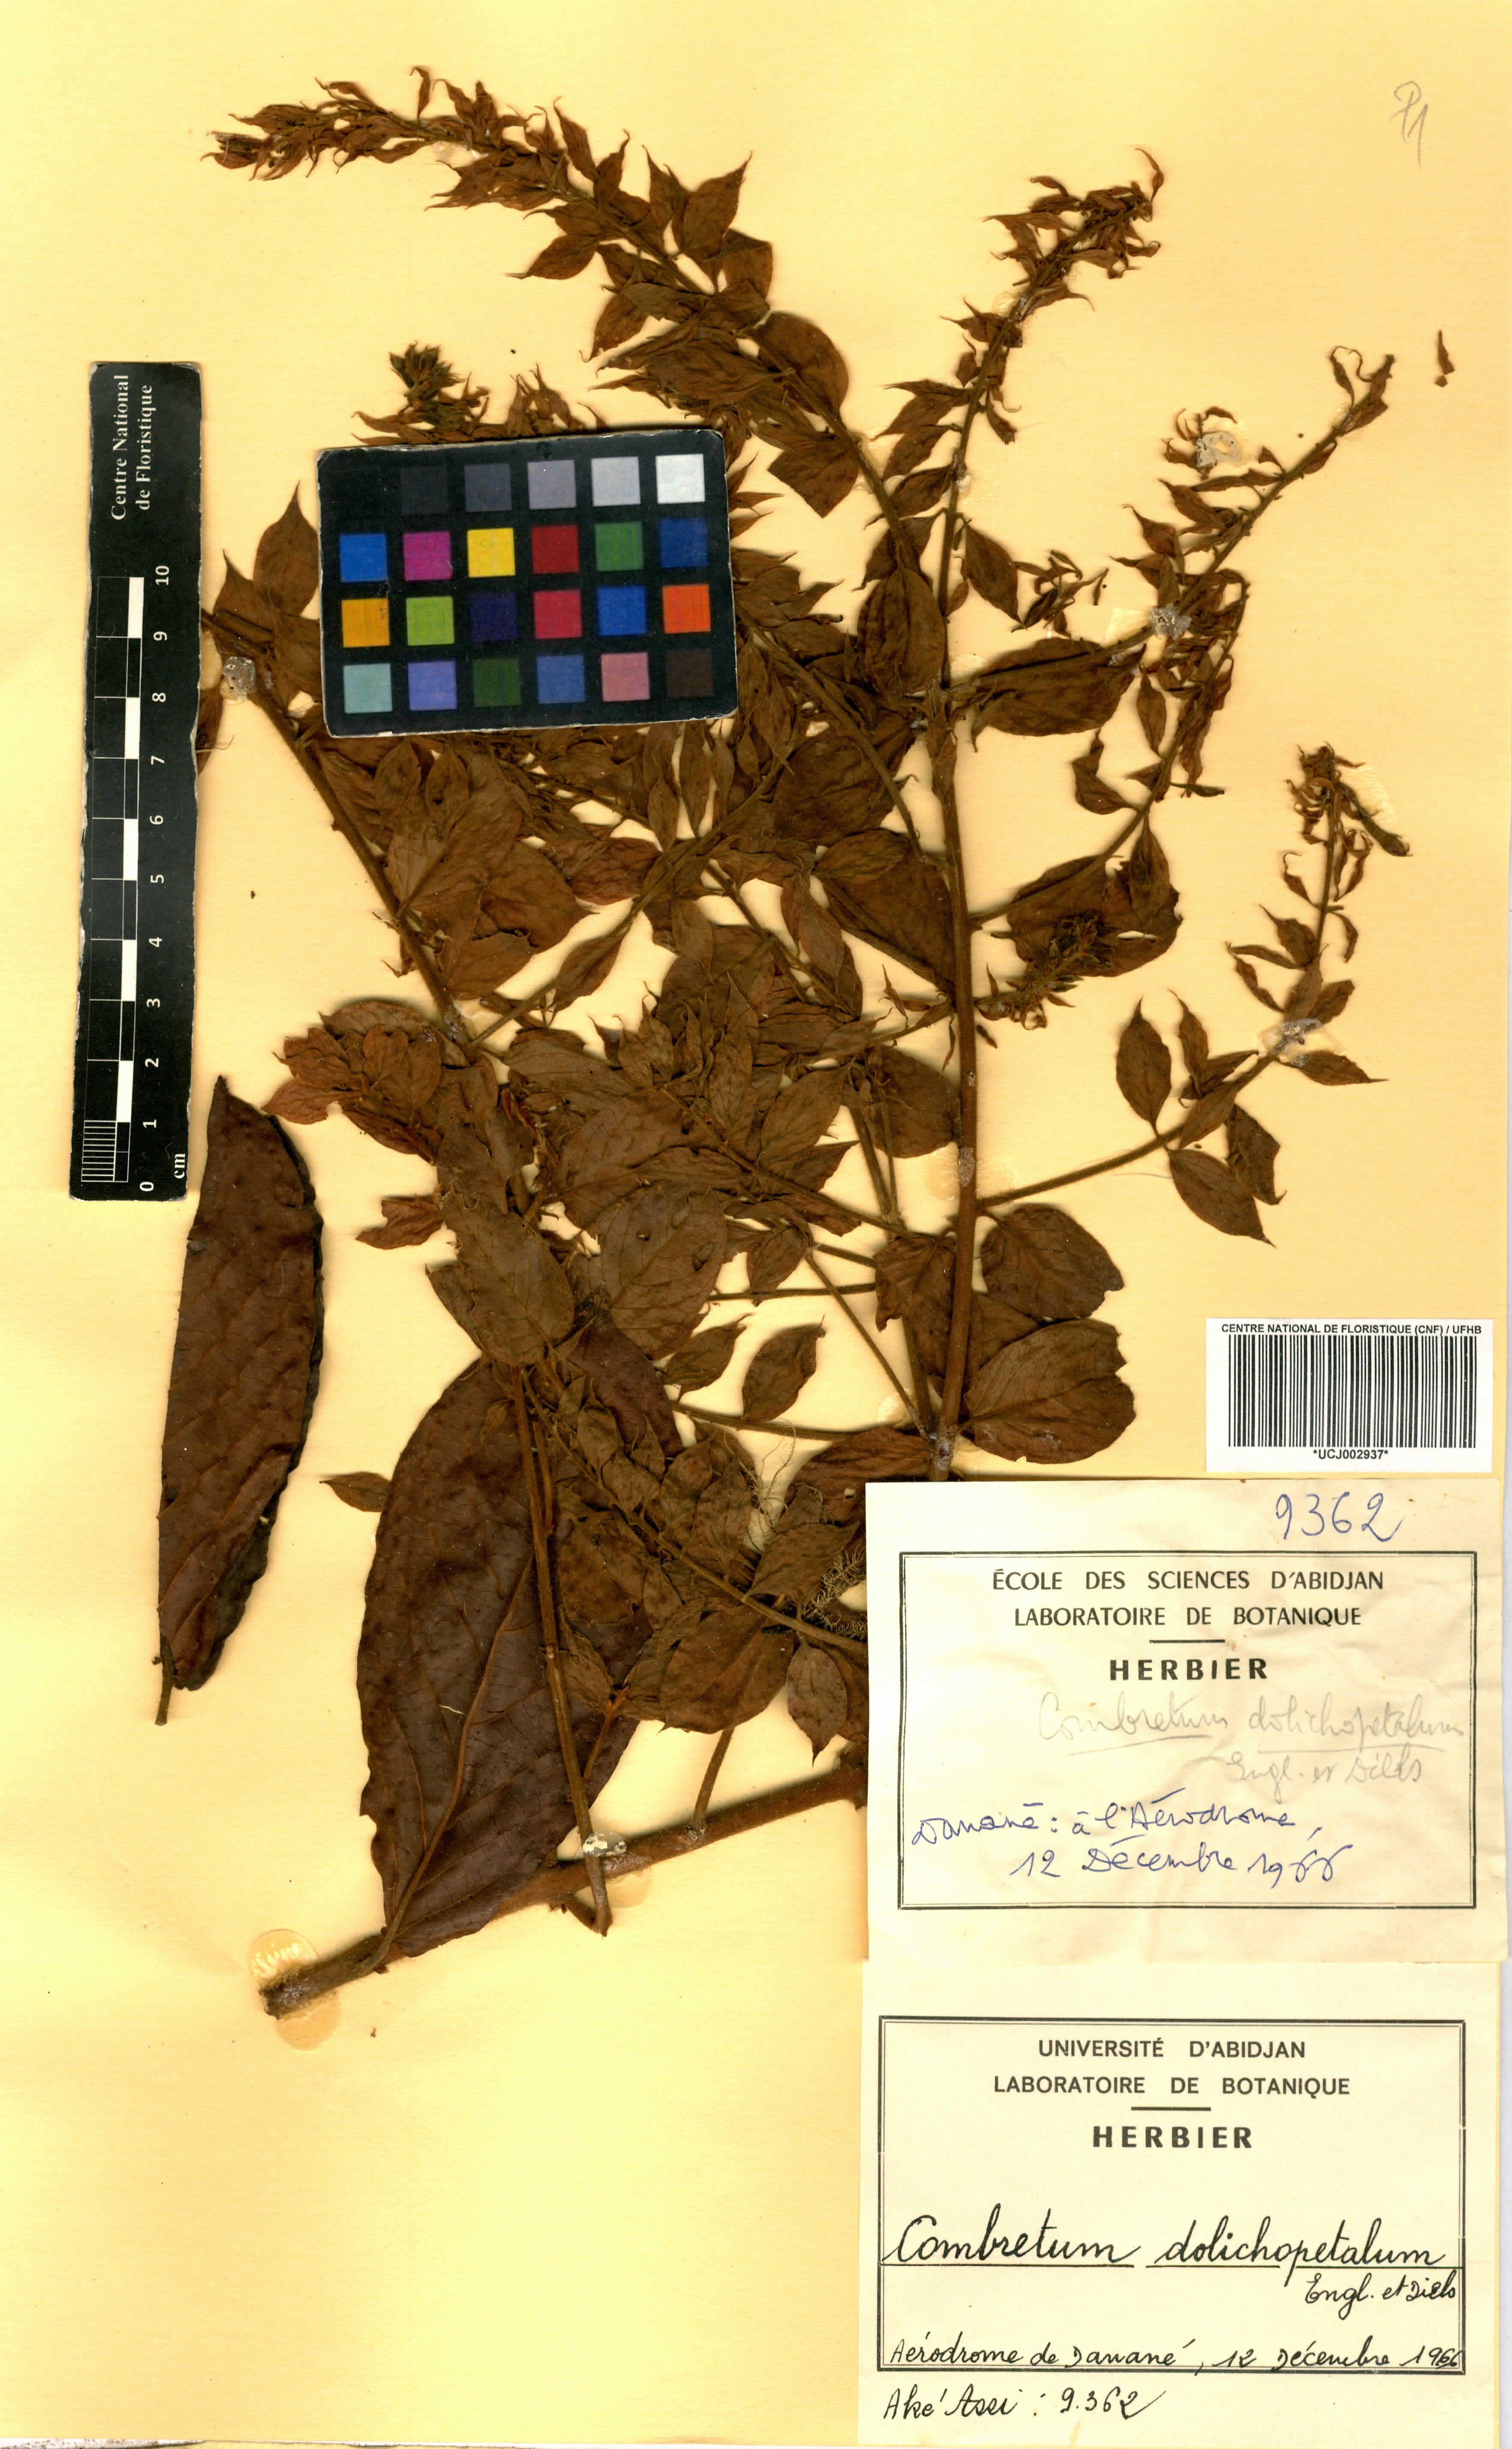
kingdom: Plantae
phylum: Tracheophyta
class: Magnoliopsida
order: Myrtales
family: Combretaceae
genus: Combretum
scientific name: Combretum comosum
